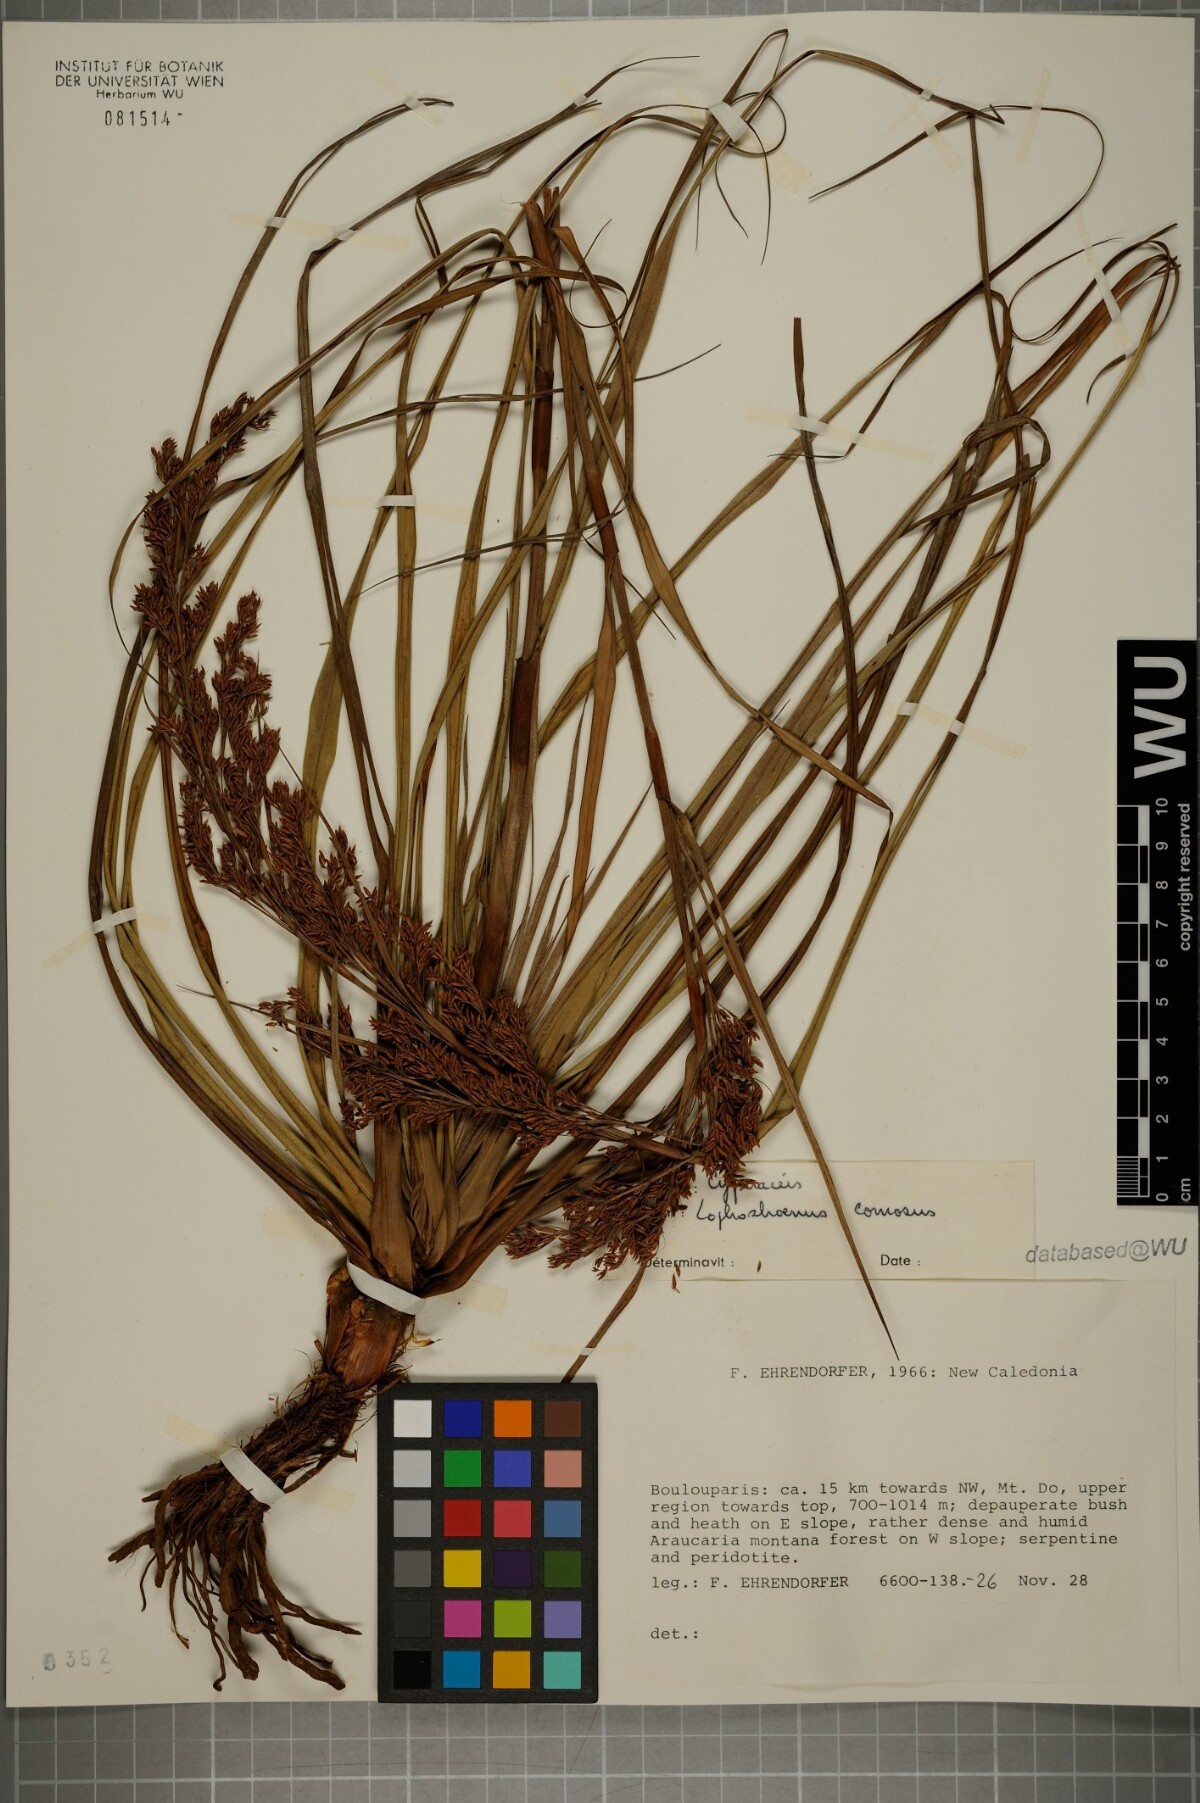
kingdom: Plantae
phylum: Tracheophyta
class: Liliopsida
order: Poales
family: Cyperaceae
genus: Tetraria
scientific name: Tetraria comosa
